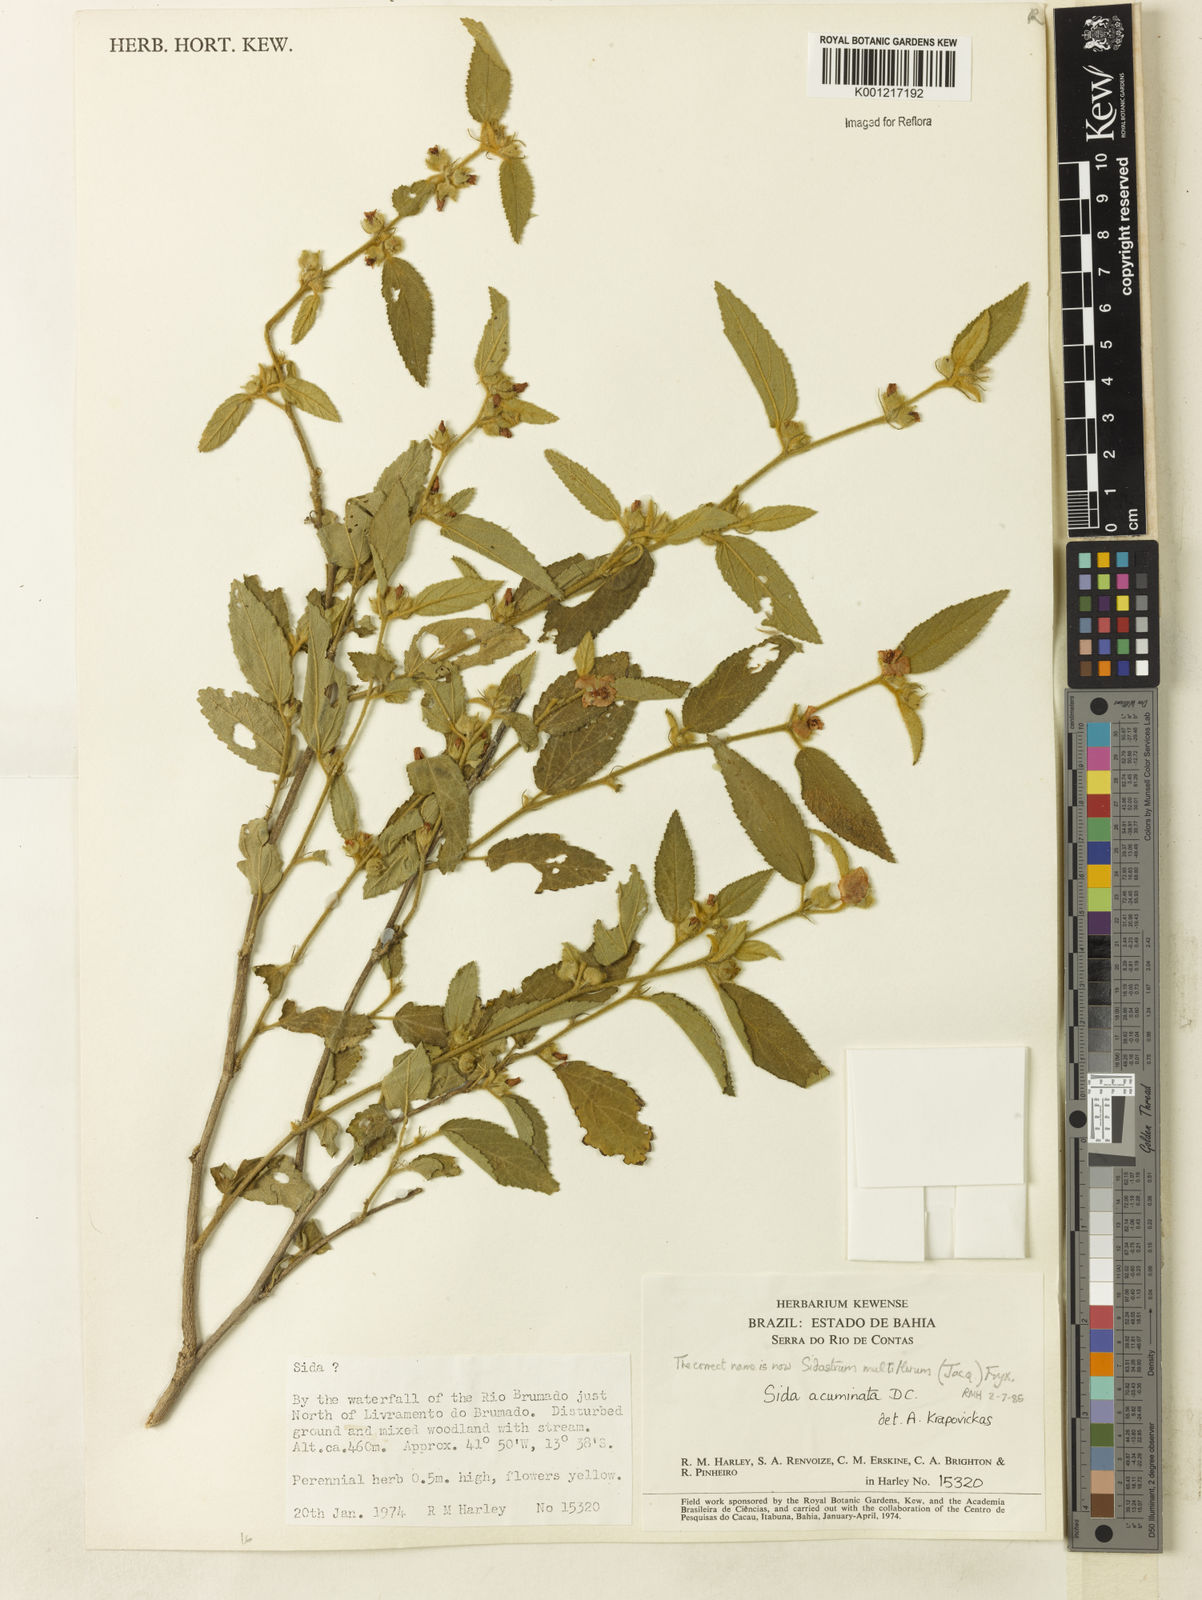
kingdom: Plantae
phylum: Tracheophyta
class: Magnoliopsida
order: Malvales
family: Malvaceae
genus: Sidastrum
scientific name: Sidastrum multiflorum
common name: Manyflower sandmallow
